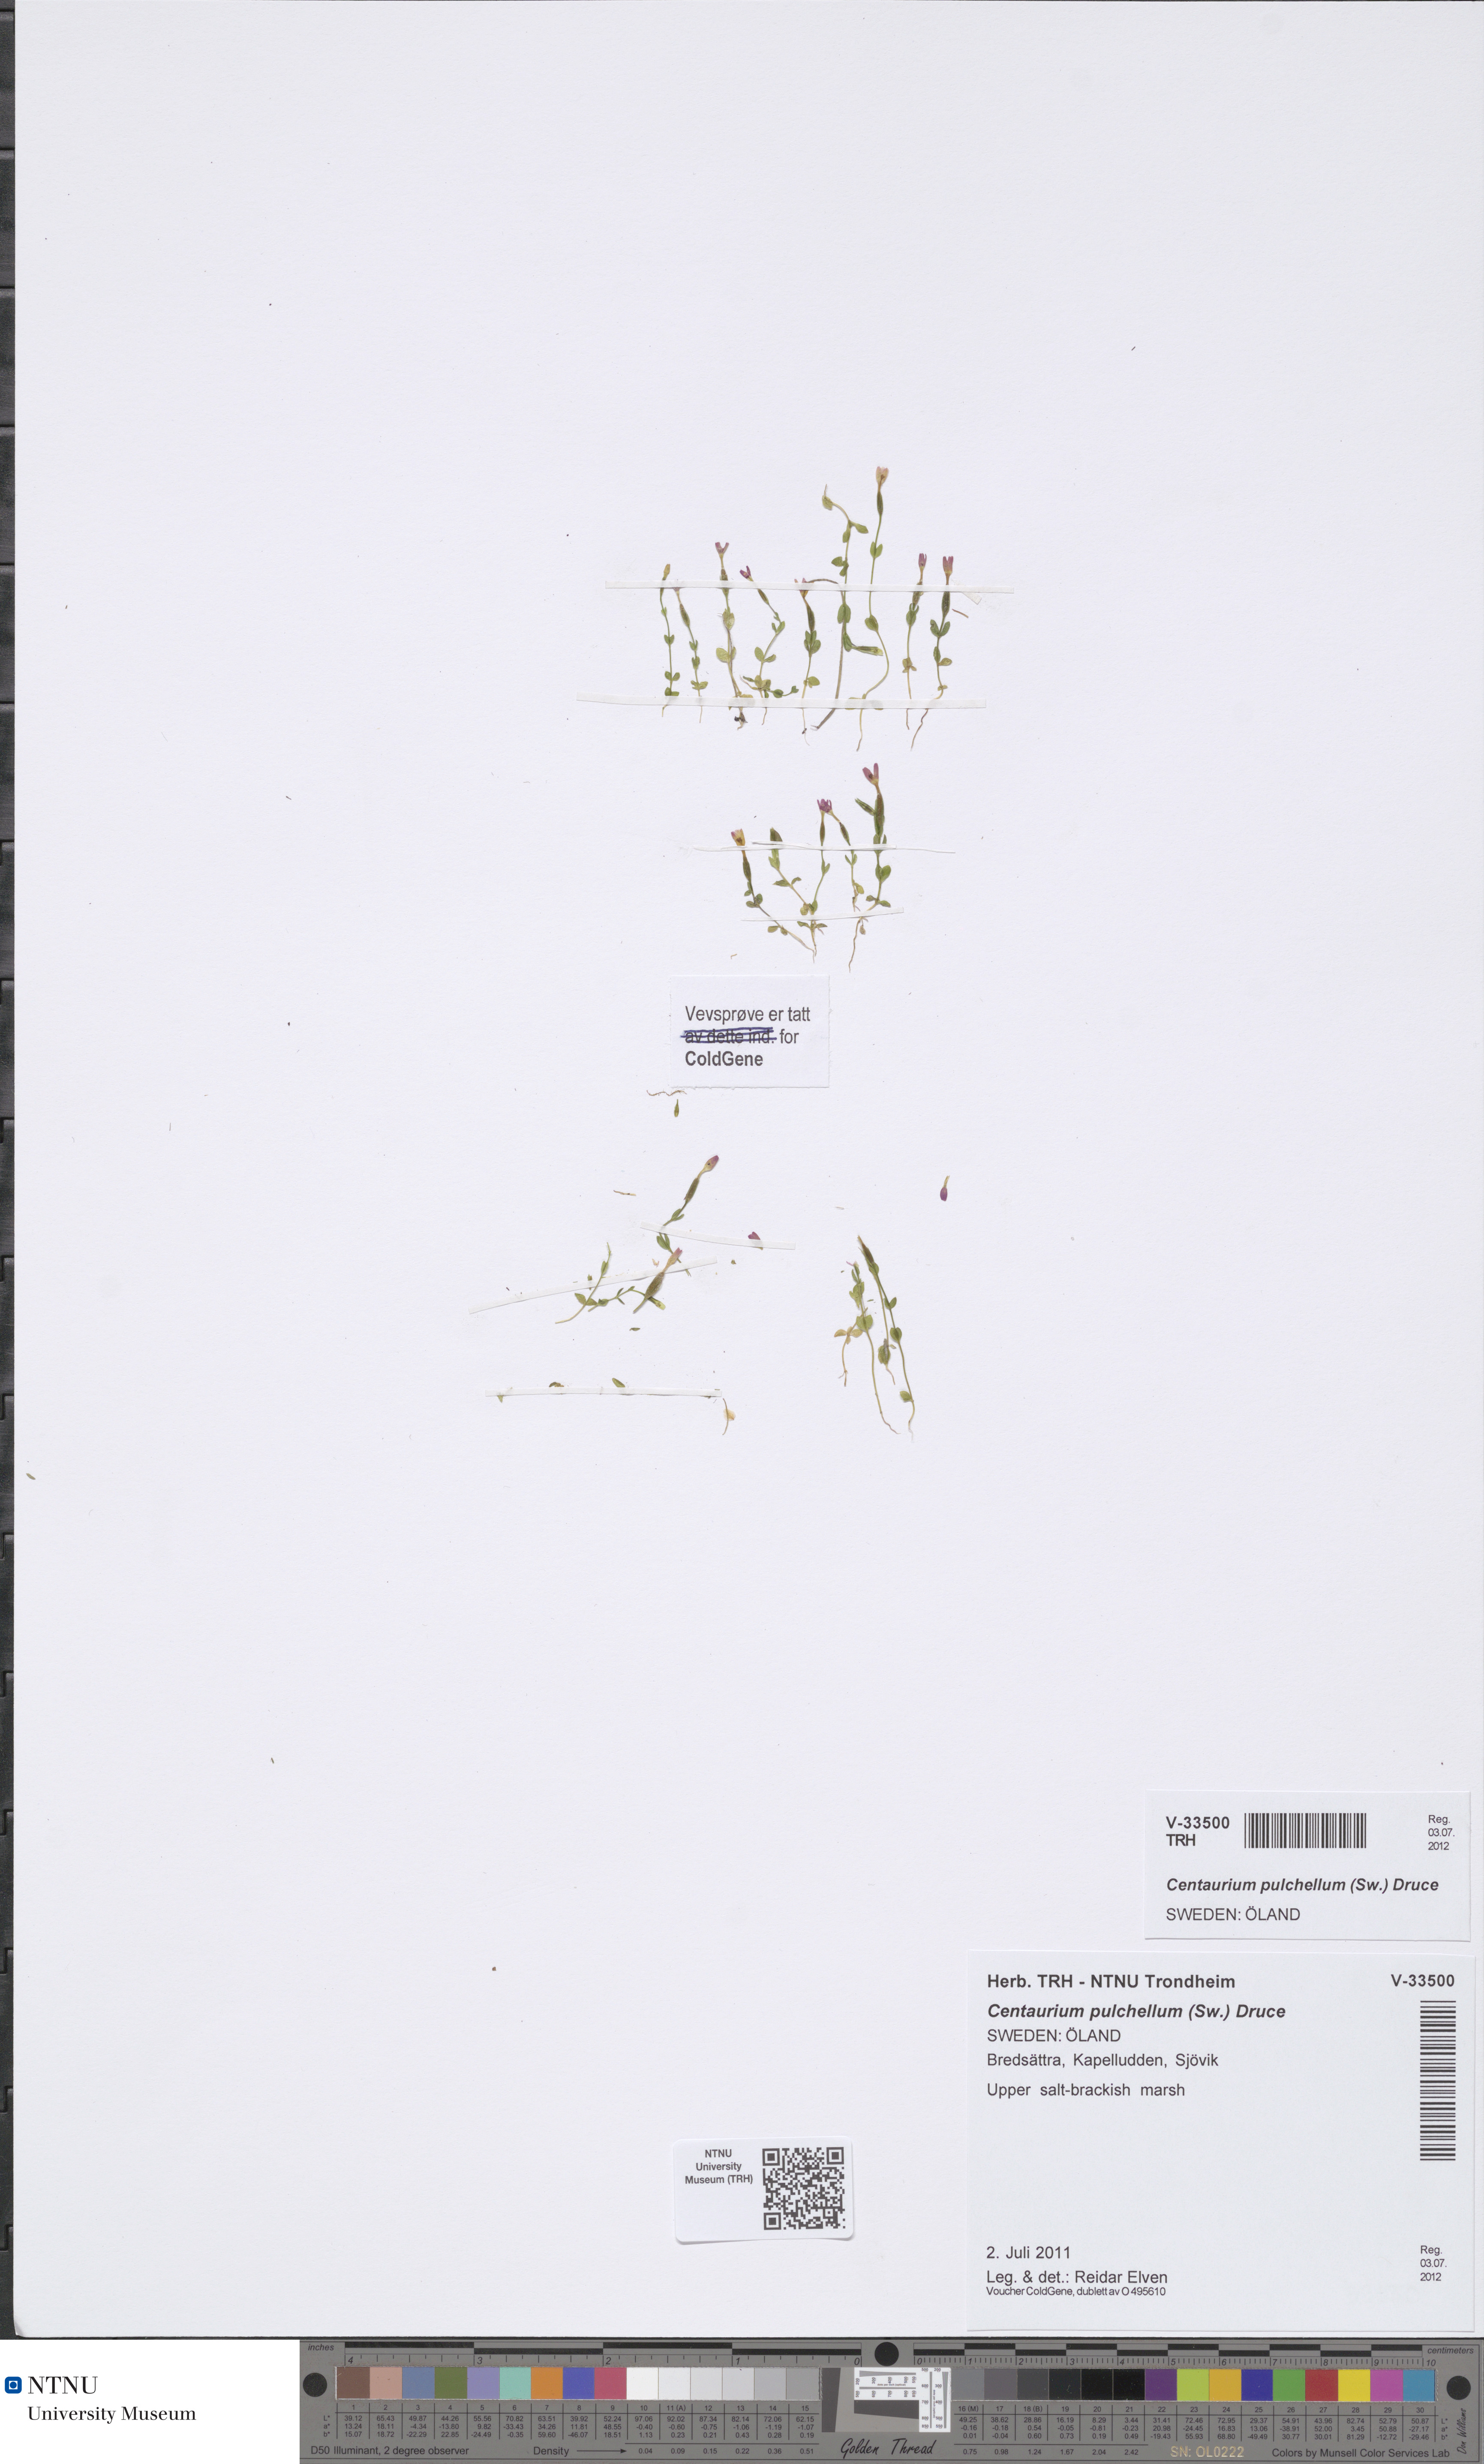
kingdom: Plantae
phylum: Tracheophyta
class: Magnoliopsida
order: Gentianales
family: Gentianaceae
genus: Centaurium
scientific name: Centaurium pulchellum
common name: Lesser centaury
